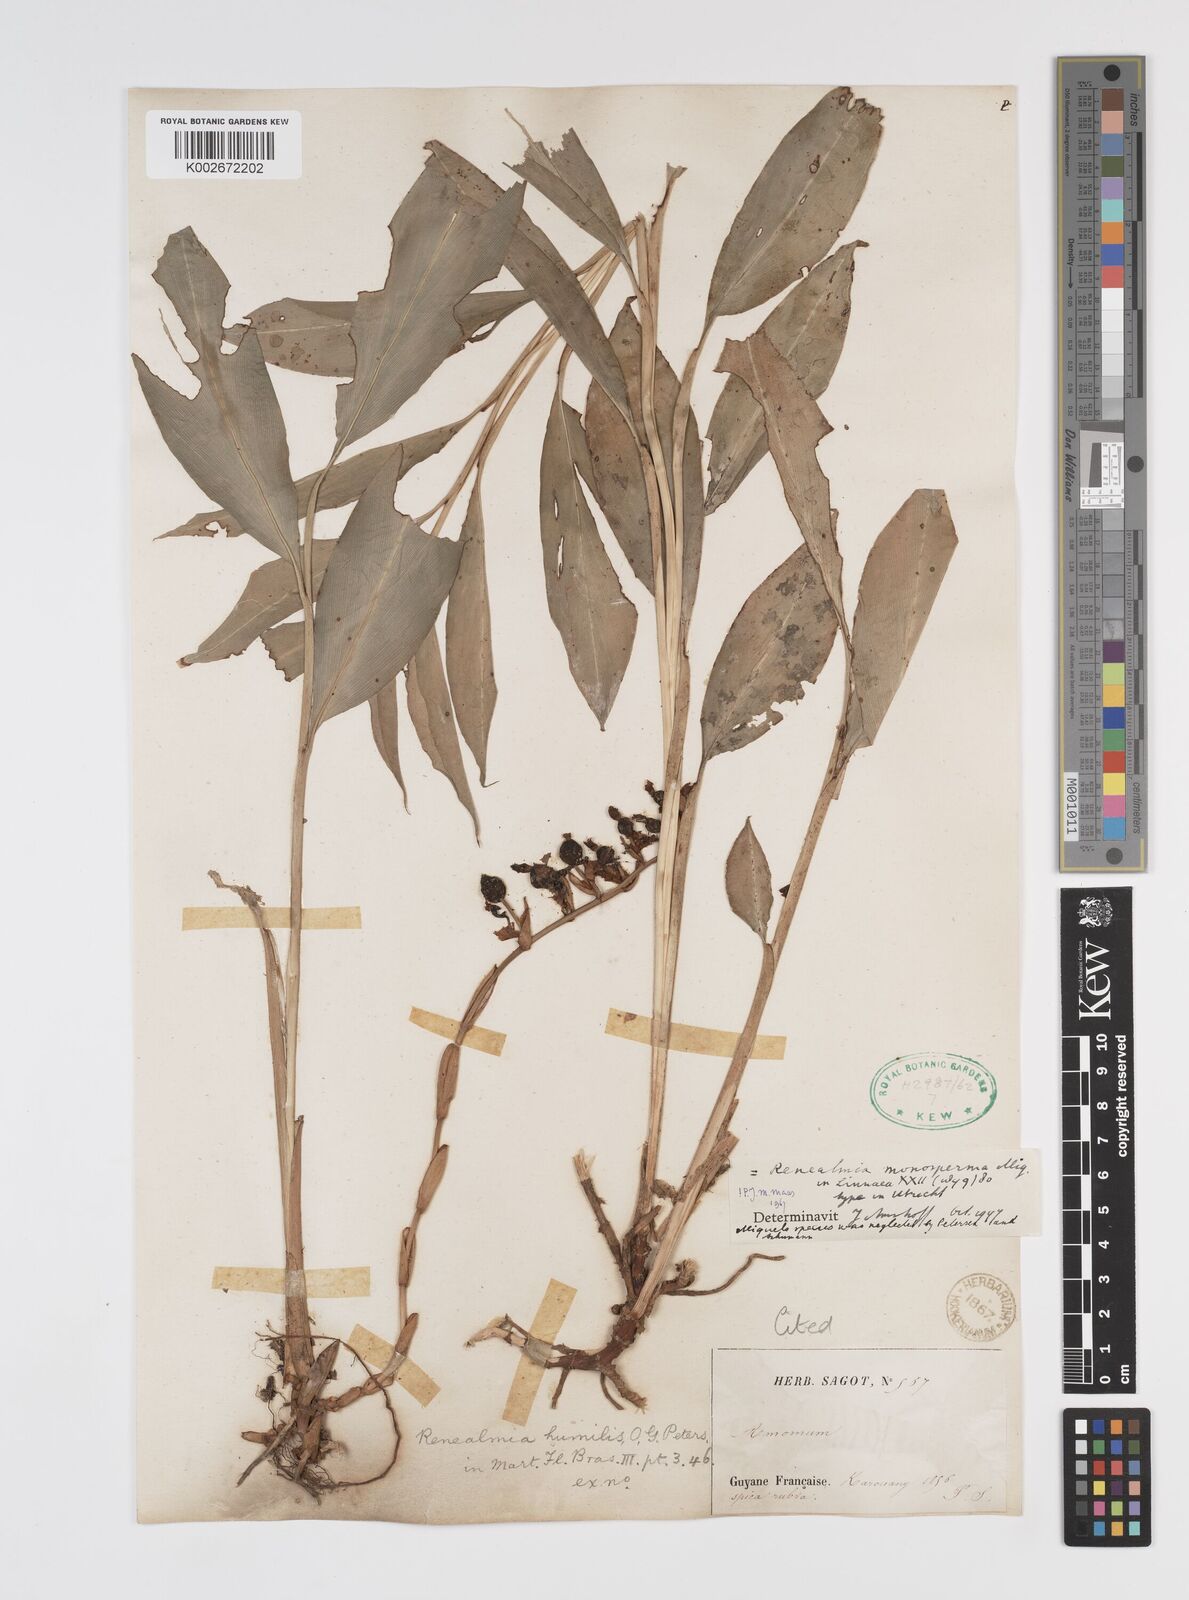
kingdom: Plantae
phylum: Tracheophyta
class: Liliopsida
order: Zingiberales
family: Zingiberaceae
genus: Renealmia
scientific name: Renealmia monosperma
